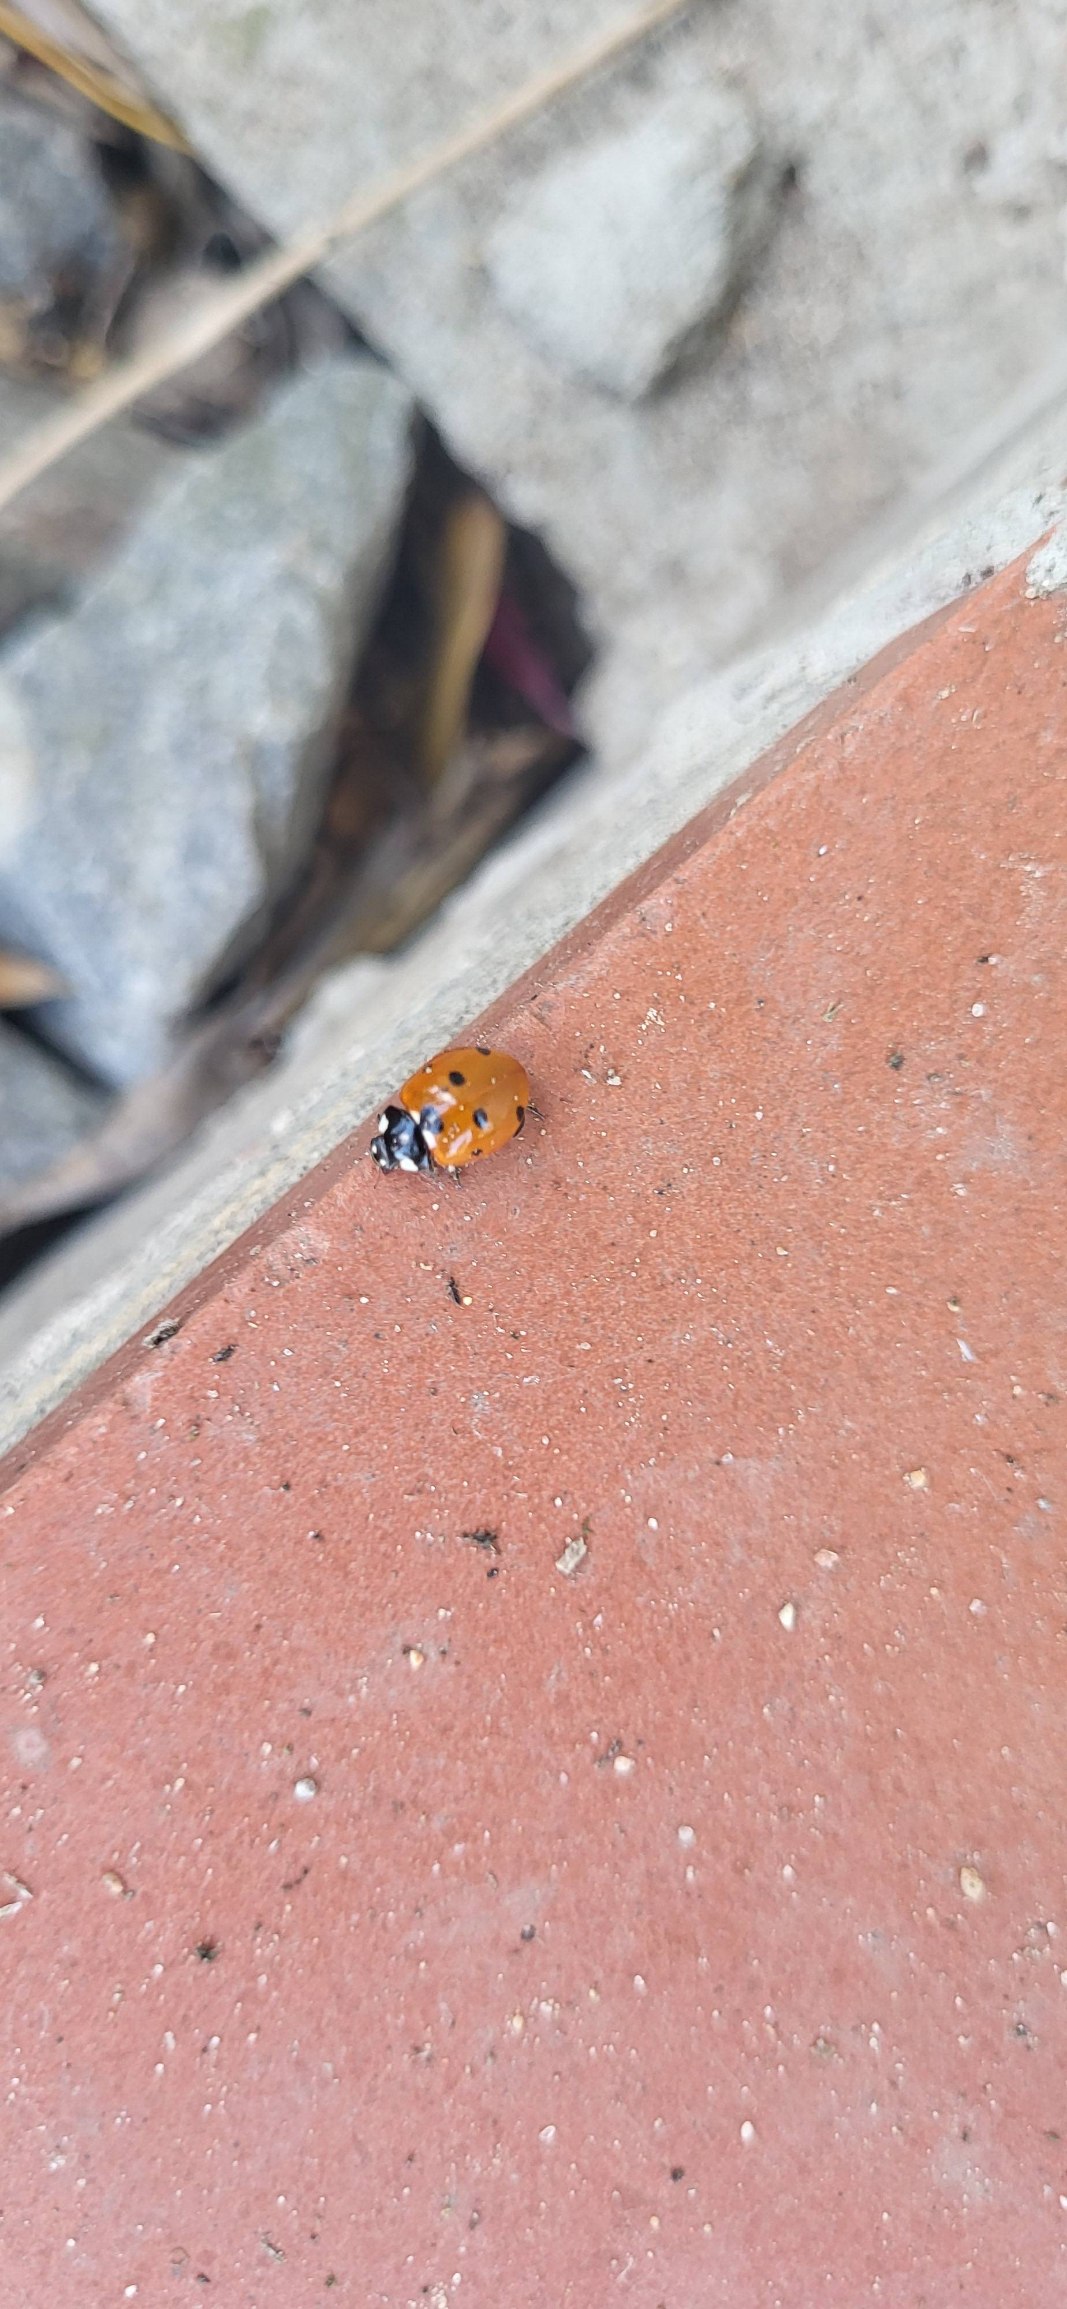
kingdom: Animalia
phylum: Arthropoda
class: Insecta
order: Coleoptera
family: Coccinellidae
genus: Coccinella
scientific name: Coccinella septempunctata
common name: Syvplettet mariehøne
